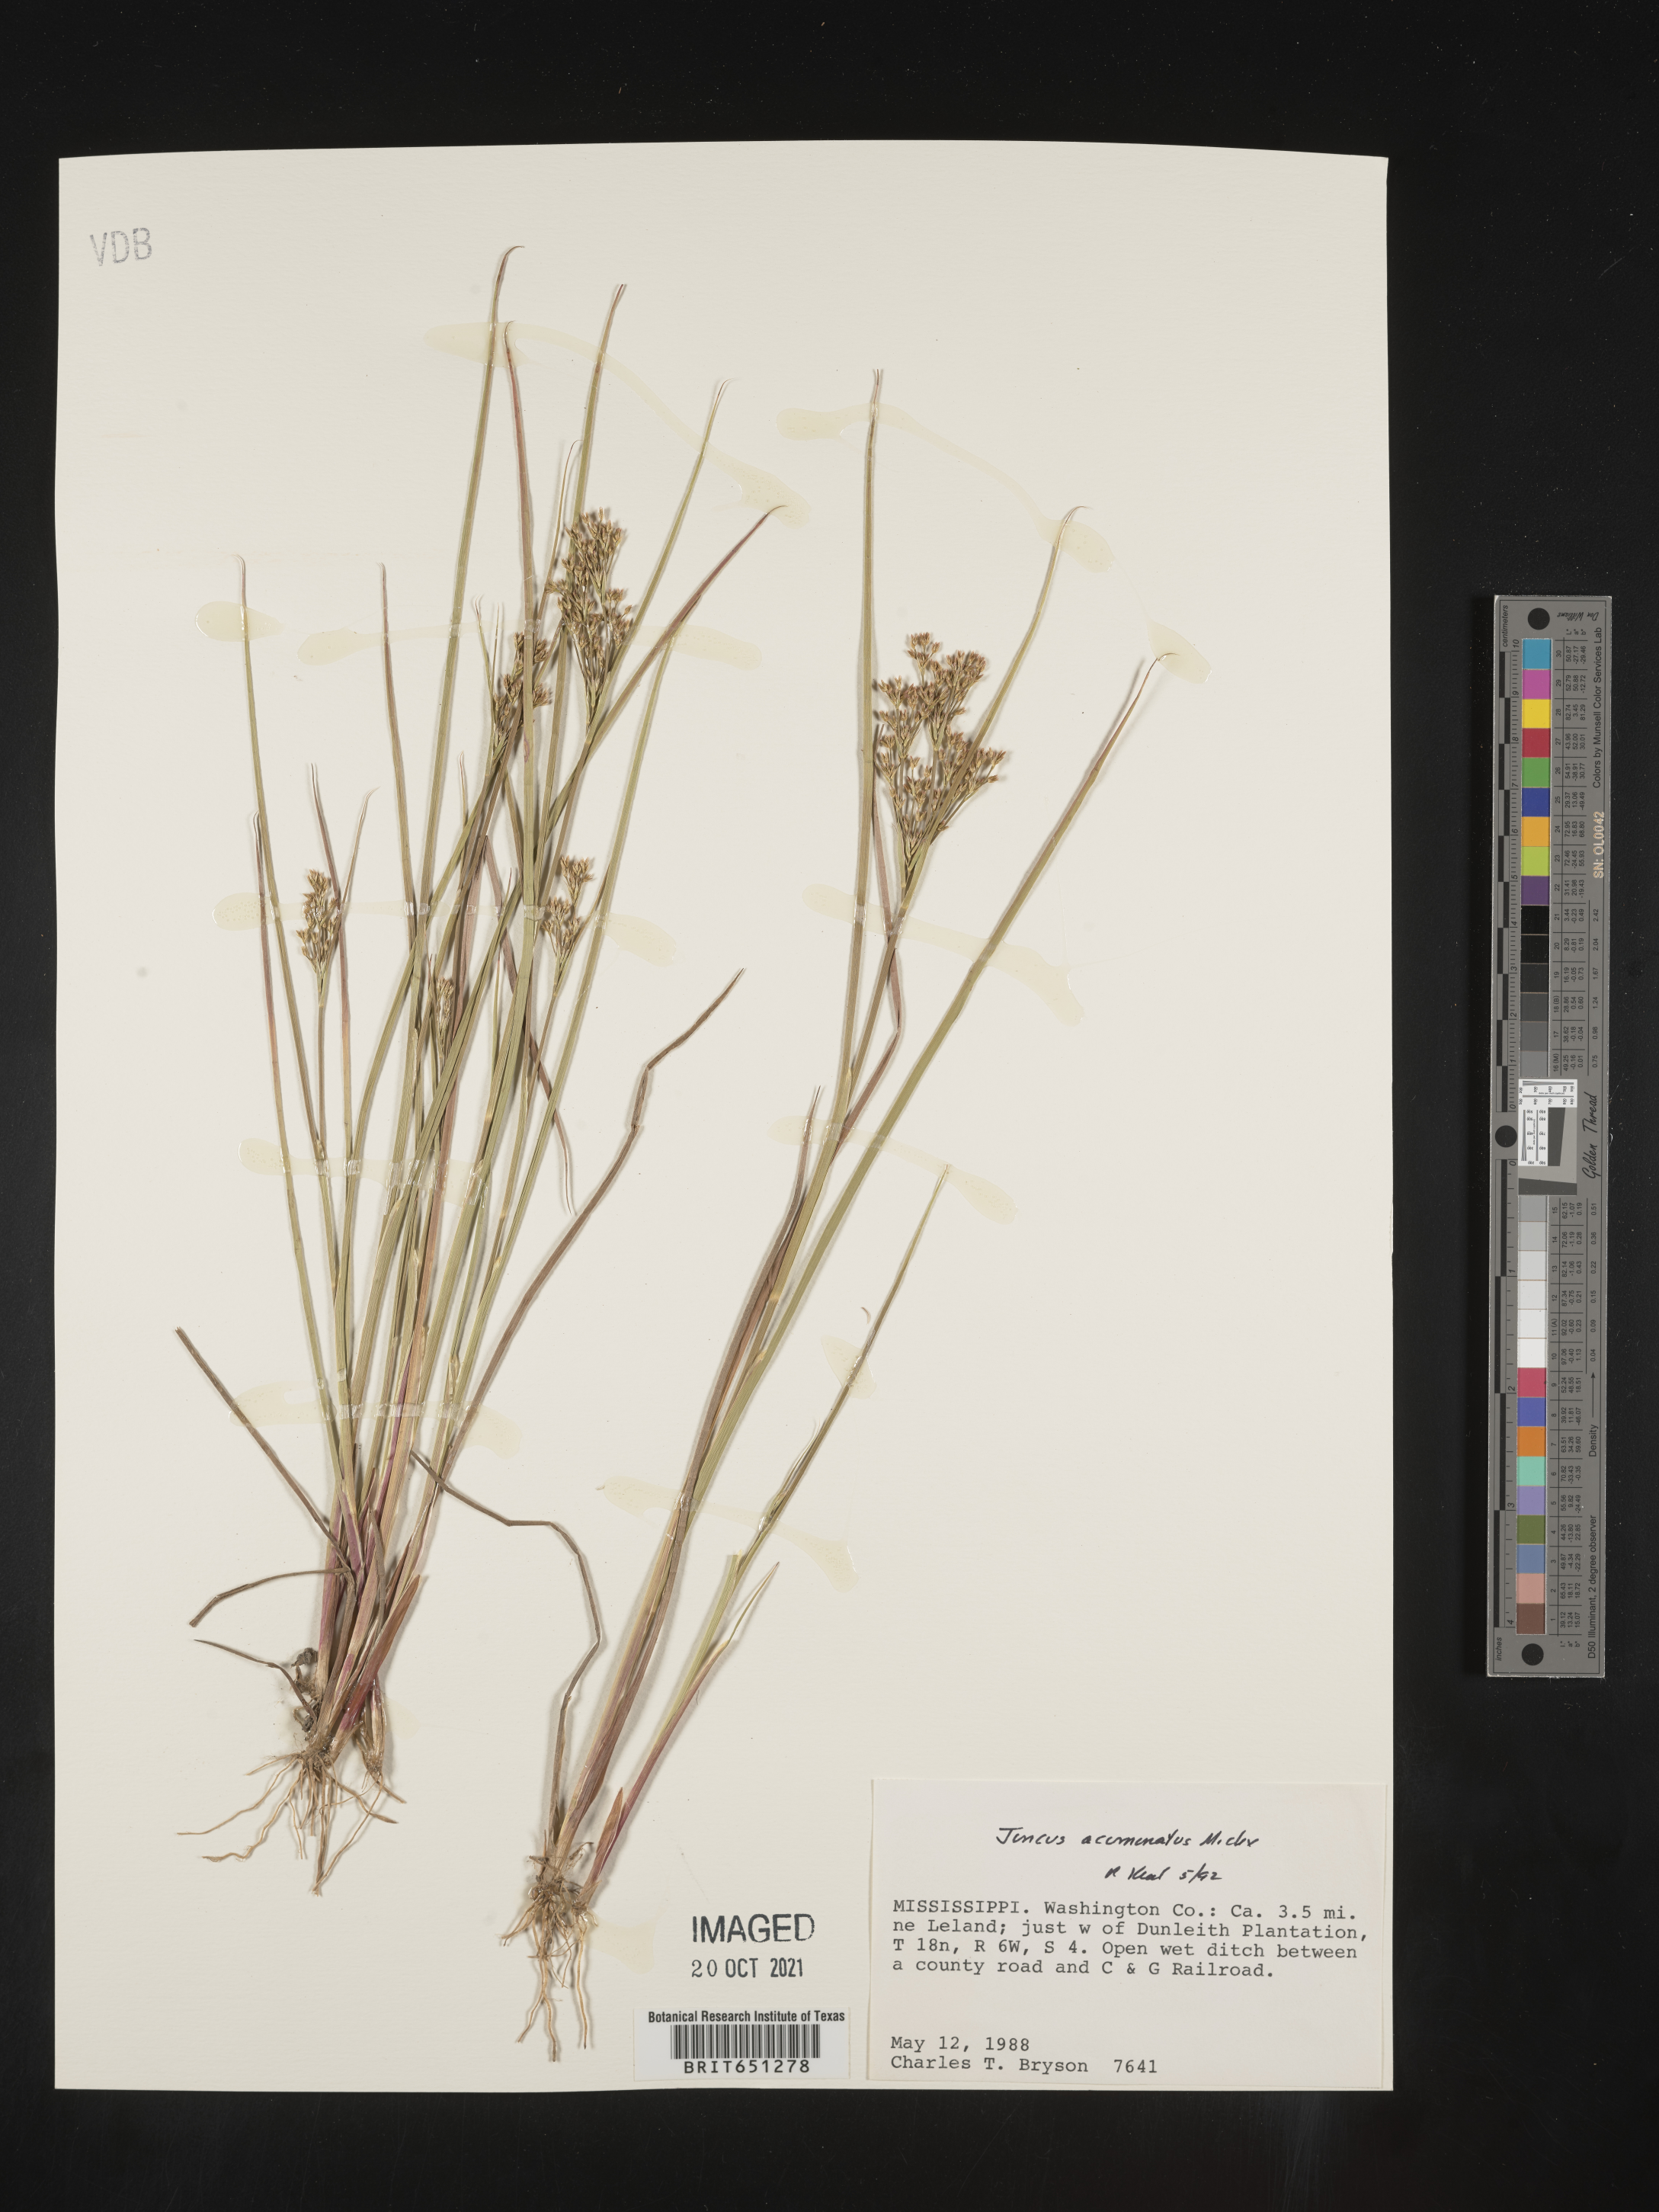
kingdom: Plantae
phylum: Tracheophyta
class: Liliopsida
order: Poales
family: Juncaceae
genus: Juncus
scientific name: Juncus acuminatus
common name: Knotty-leaved rush
